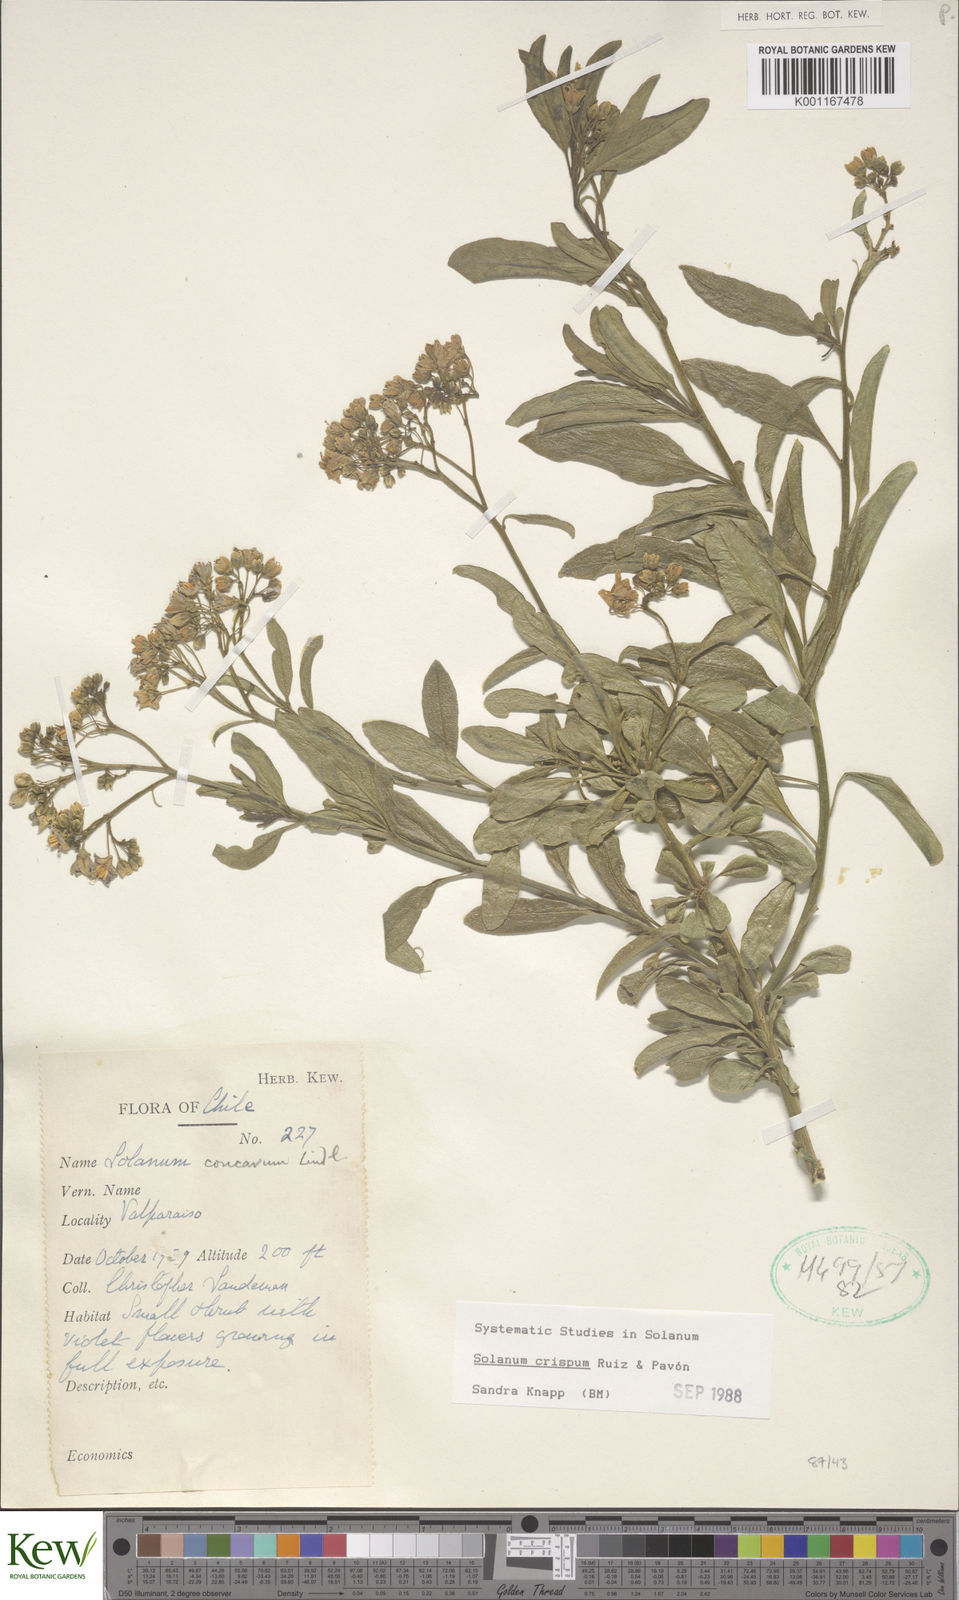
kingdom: Plantae
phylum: Tracheophyta
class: Magnoliopsida
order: Solanales
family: Solanaceae
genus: Solanum
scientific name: Solanum crispum
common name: Chilean nightshade
